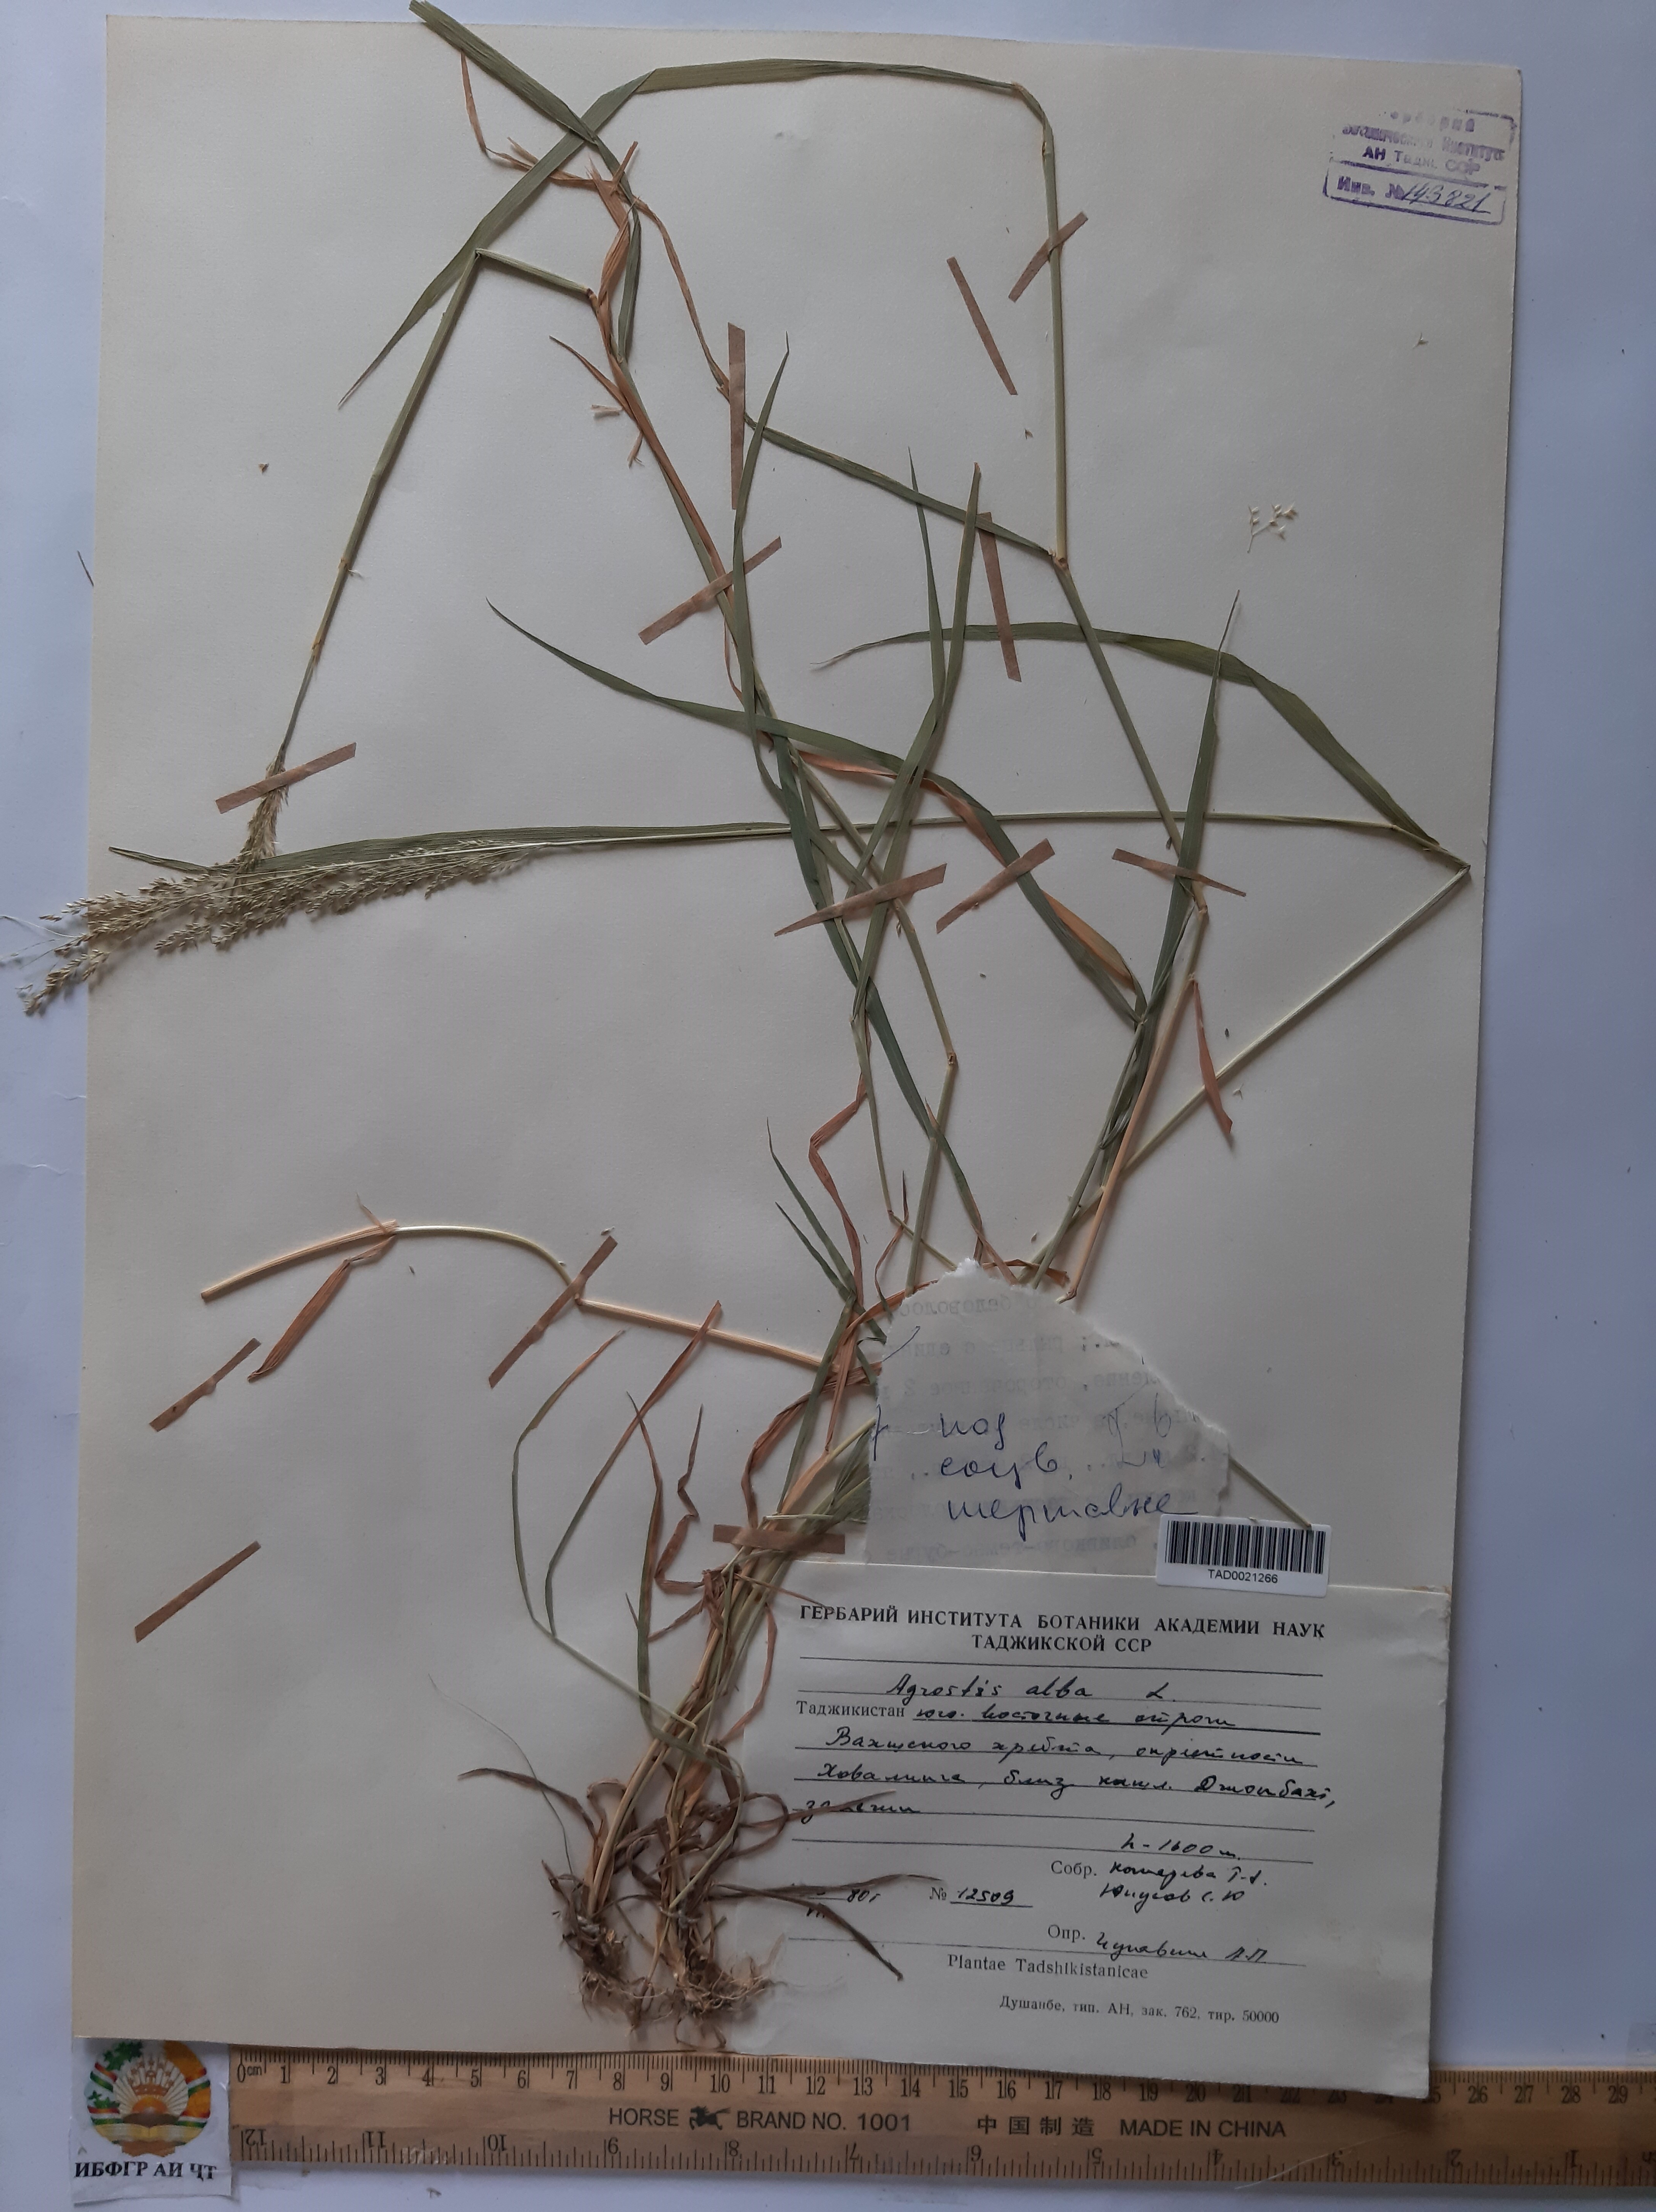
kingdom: Plantae
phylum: Tracheophyta
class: Liliopsida
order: Poales
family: Poaceae
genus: Poa
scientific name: Poa nemoralis
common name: Wood bluegrass
